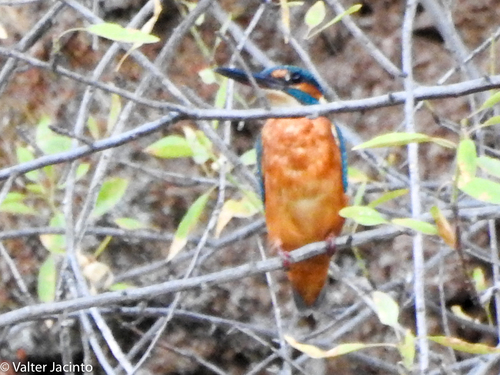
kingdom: Animalia
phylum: Chordata
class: Aves
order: Coraciiformes
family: Alcedinidae
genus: Alcedo
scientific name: Alcedo atthis
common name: Common kingfisher
